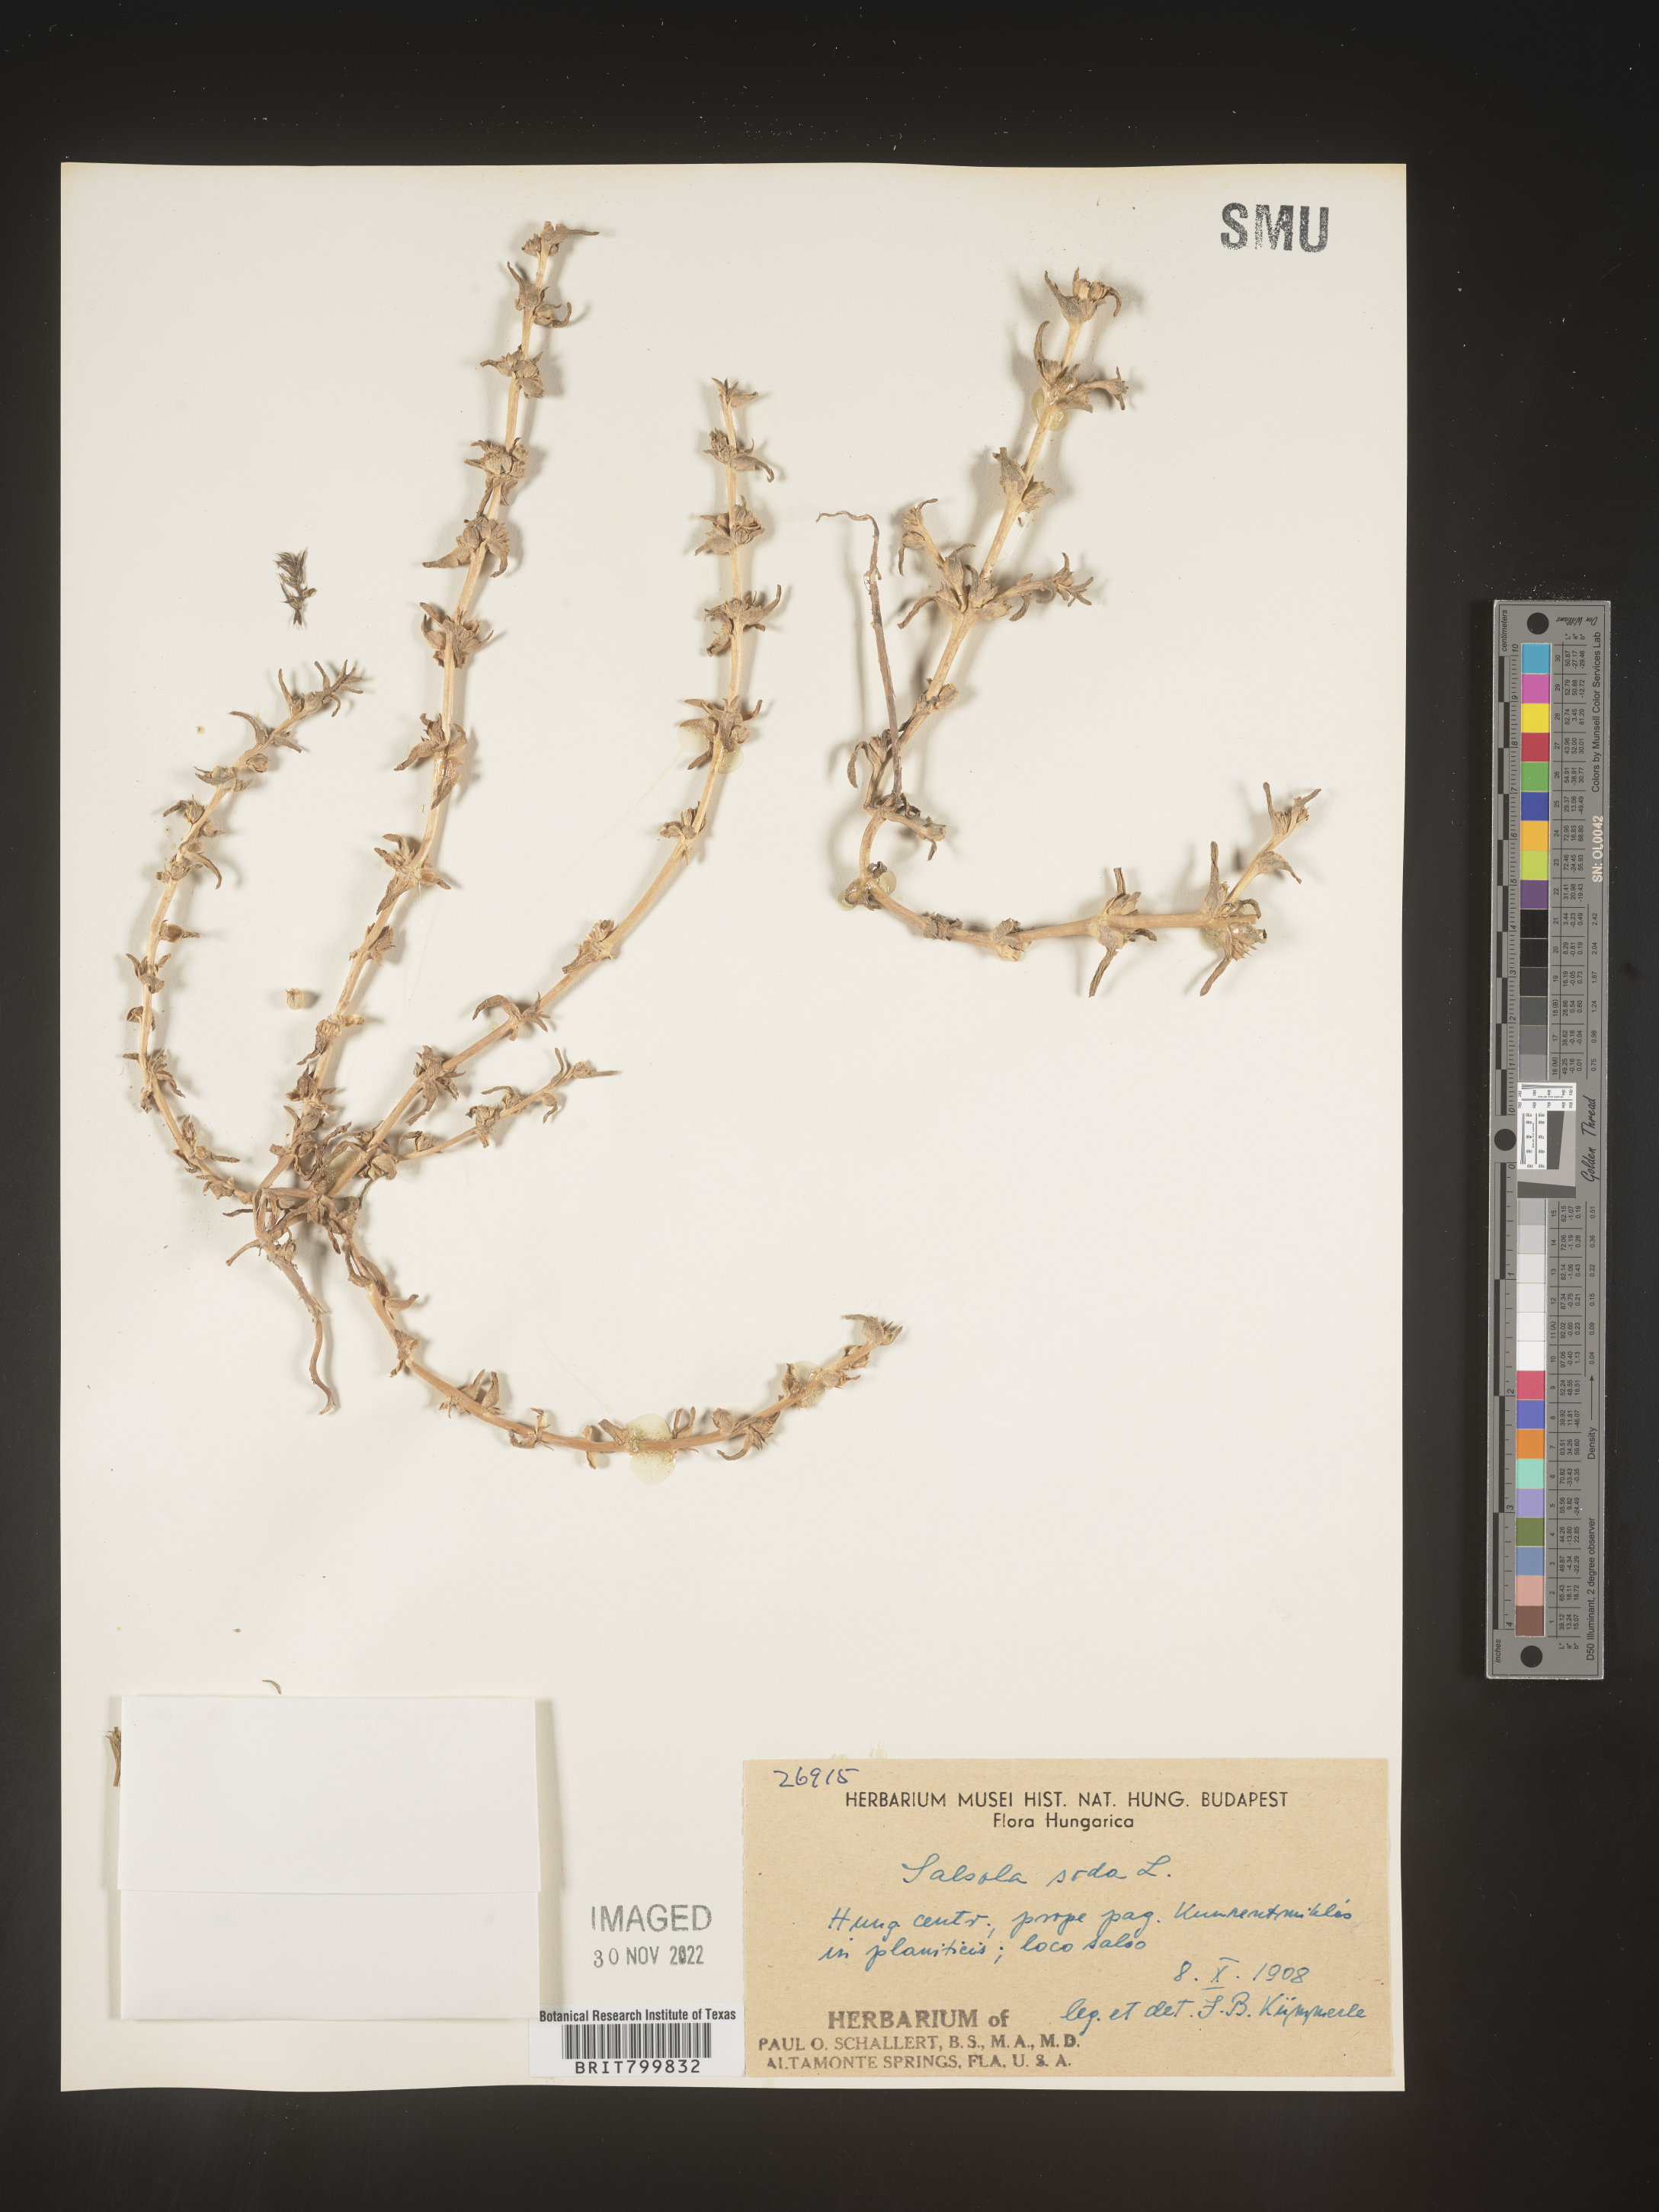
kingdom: Plantae
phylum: Tracheophyta
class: Magnoliopsida
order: Caryophyllales
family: Amaranthaceae
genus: Salsola
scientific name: Salsola
